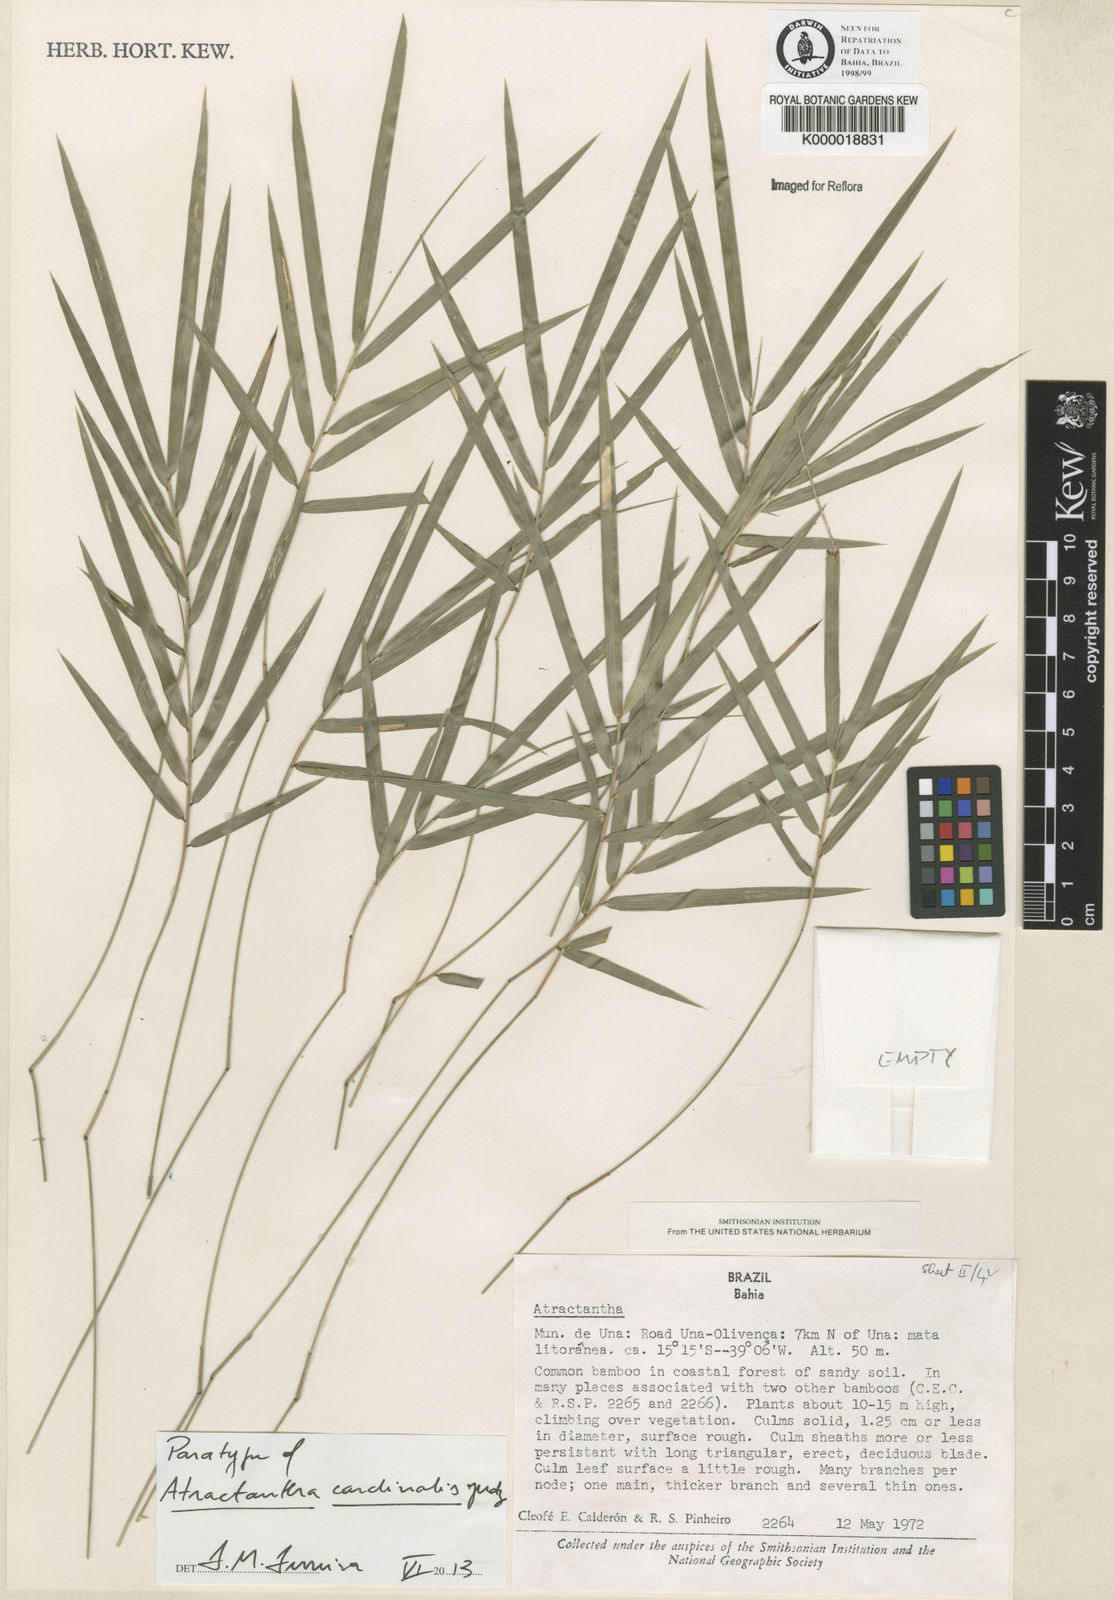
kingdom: Plantae
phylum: Tracheophyta
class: Liliopsida
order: Poales
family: Poaceae
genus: Atractantha
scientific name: Atractantha cardinalis
